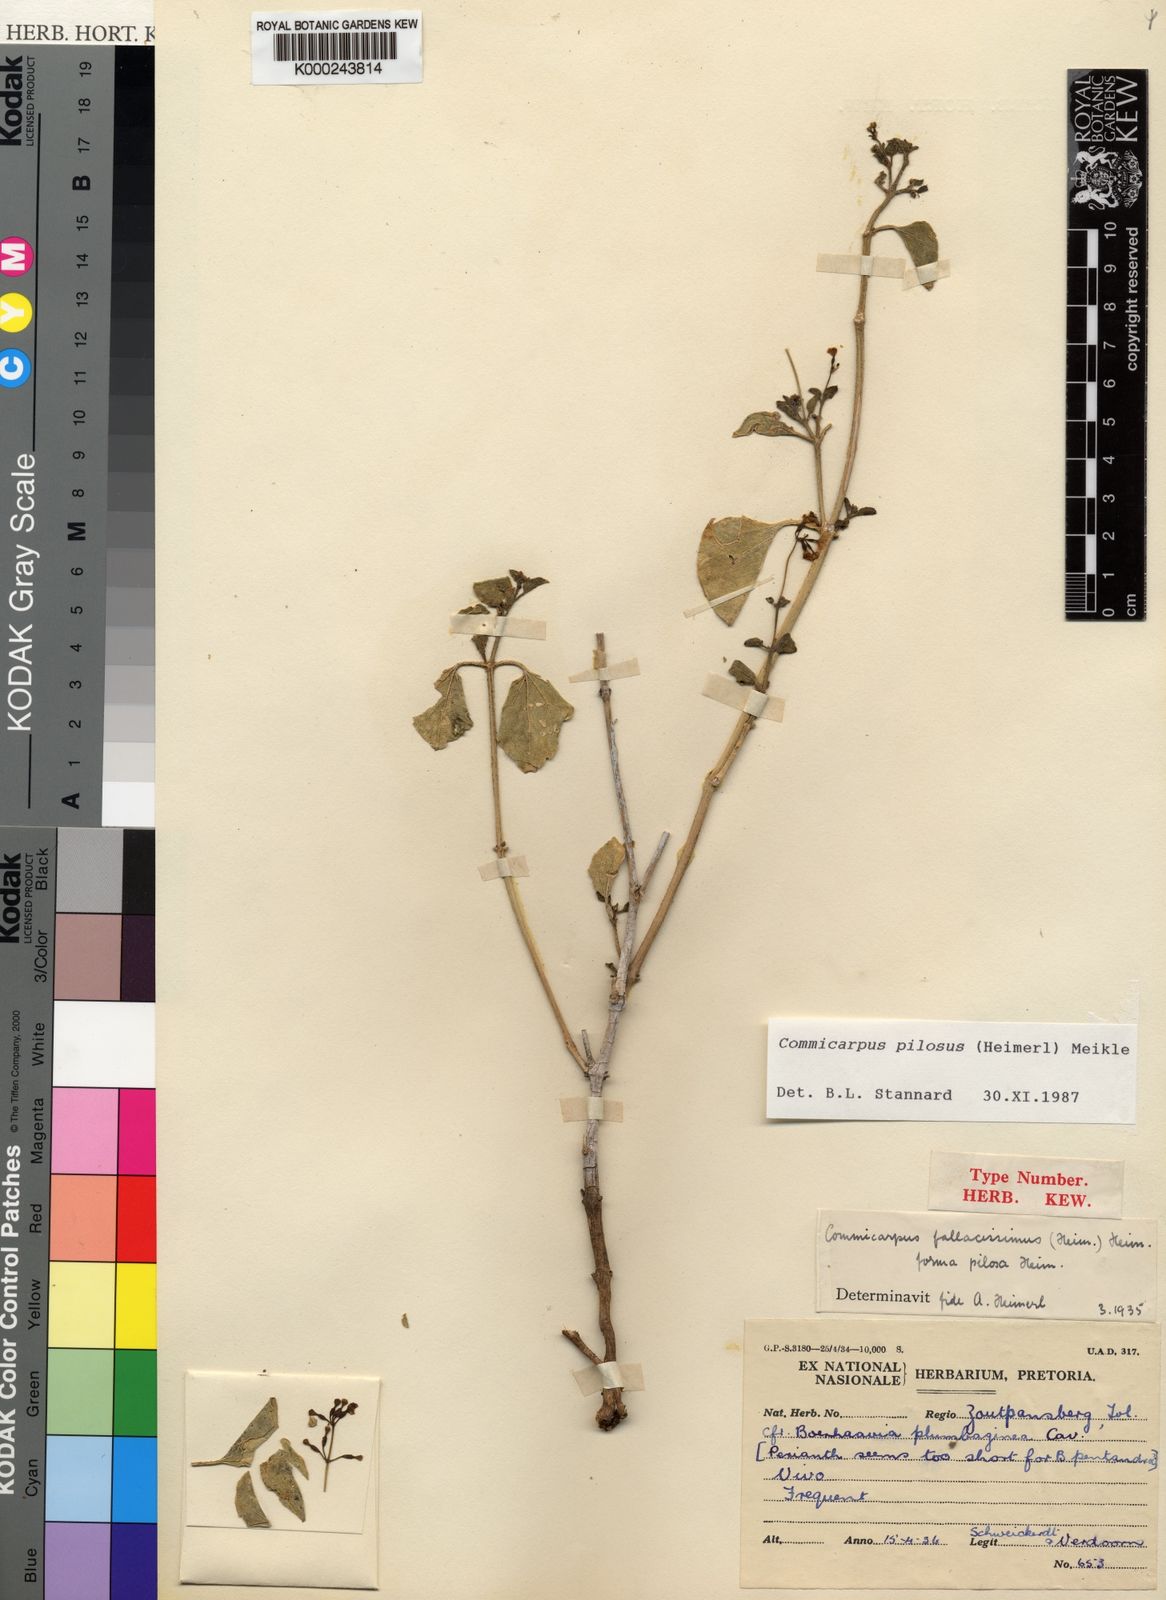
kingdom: Plantae
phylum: Tracheophyta
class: Magnoliopsida
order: Caryophyllales
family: Nyctaginaceae
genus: Commicarpus
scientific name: Commicarpus pilosus
